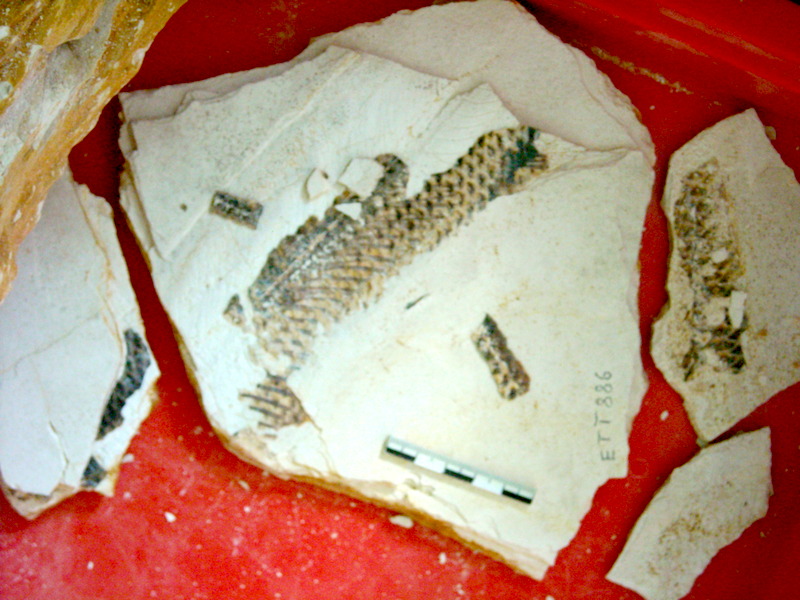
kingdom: Animalia
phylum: Chordata
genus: Thrissops
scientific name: Thrissops formosus
